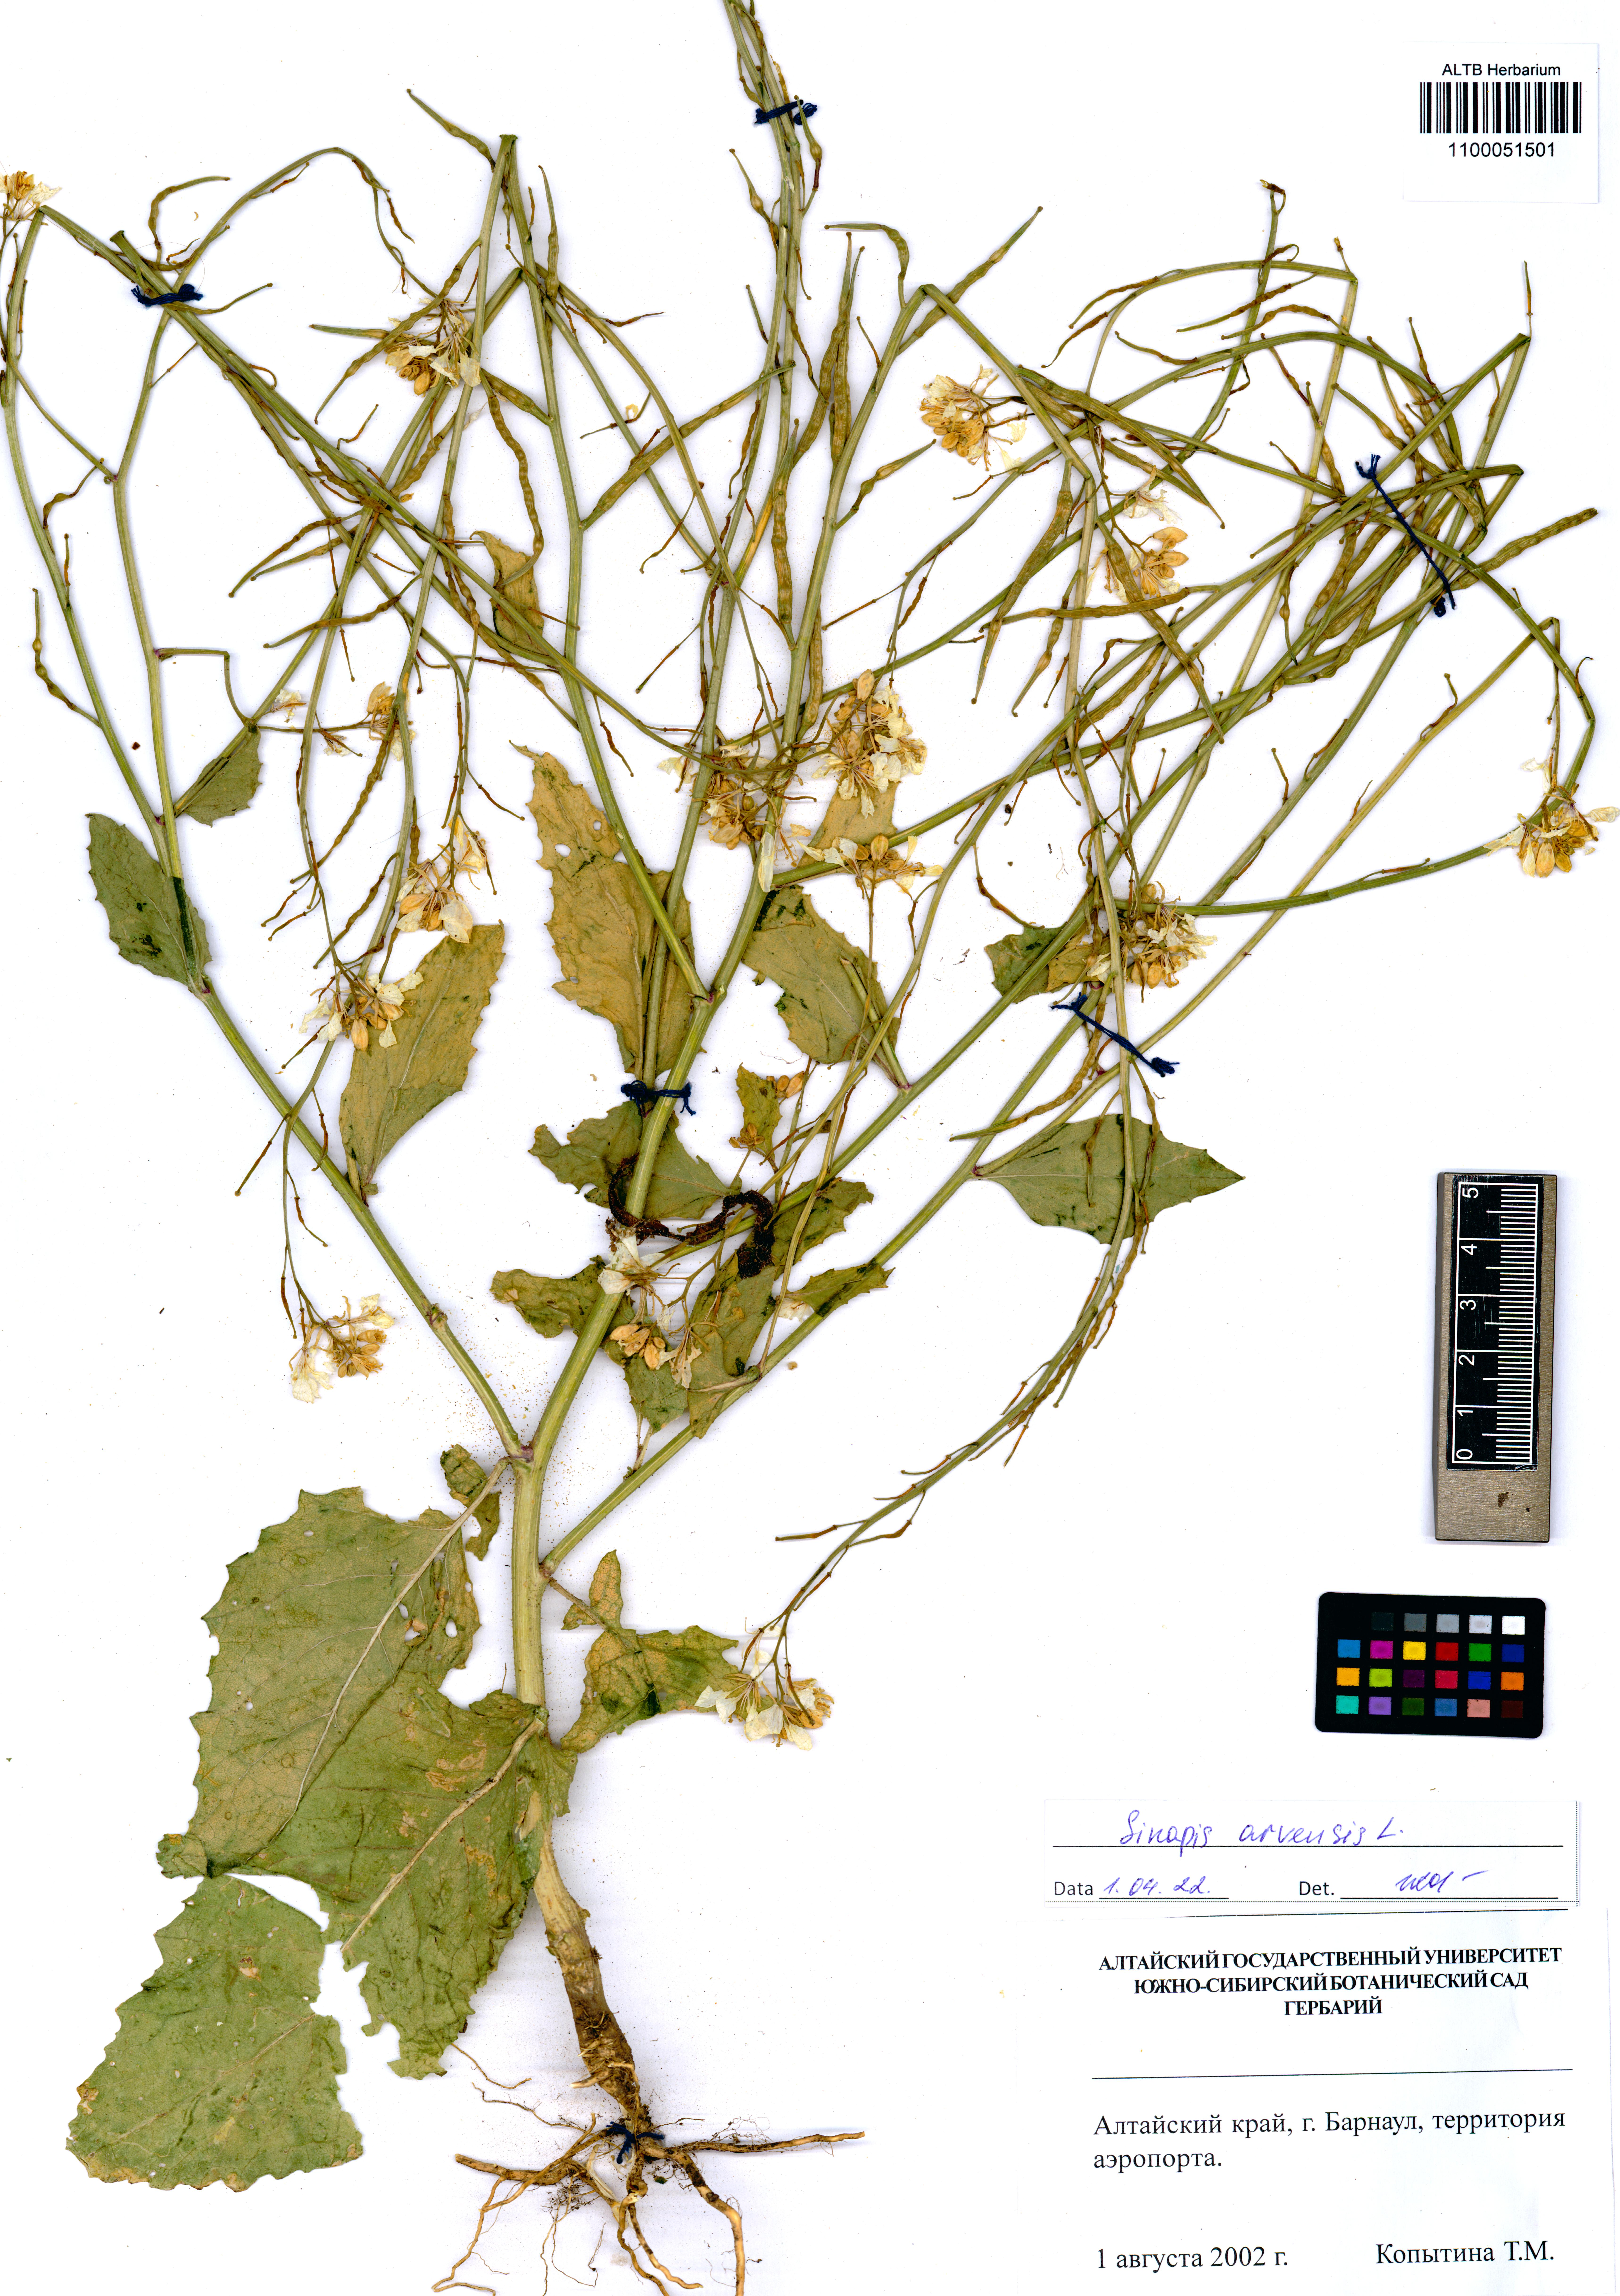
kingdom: Plantae
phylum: Tracheophyta
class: Magnoliopsida
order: Brassicales
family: Brassicaceae
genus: Sinapis
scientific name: Sinapis arvensis
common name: Charlock
